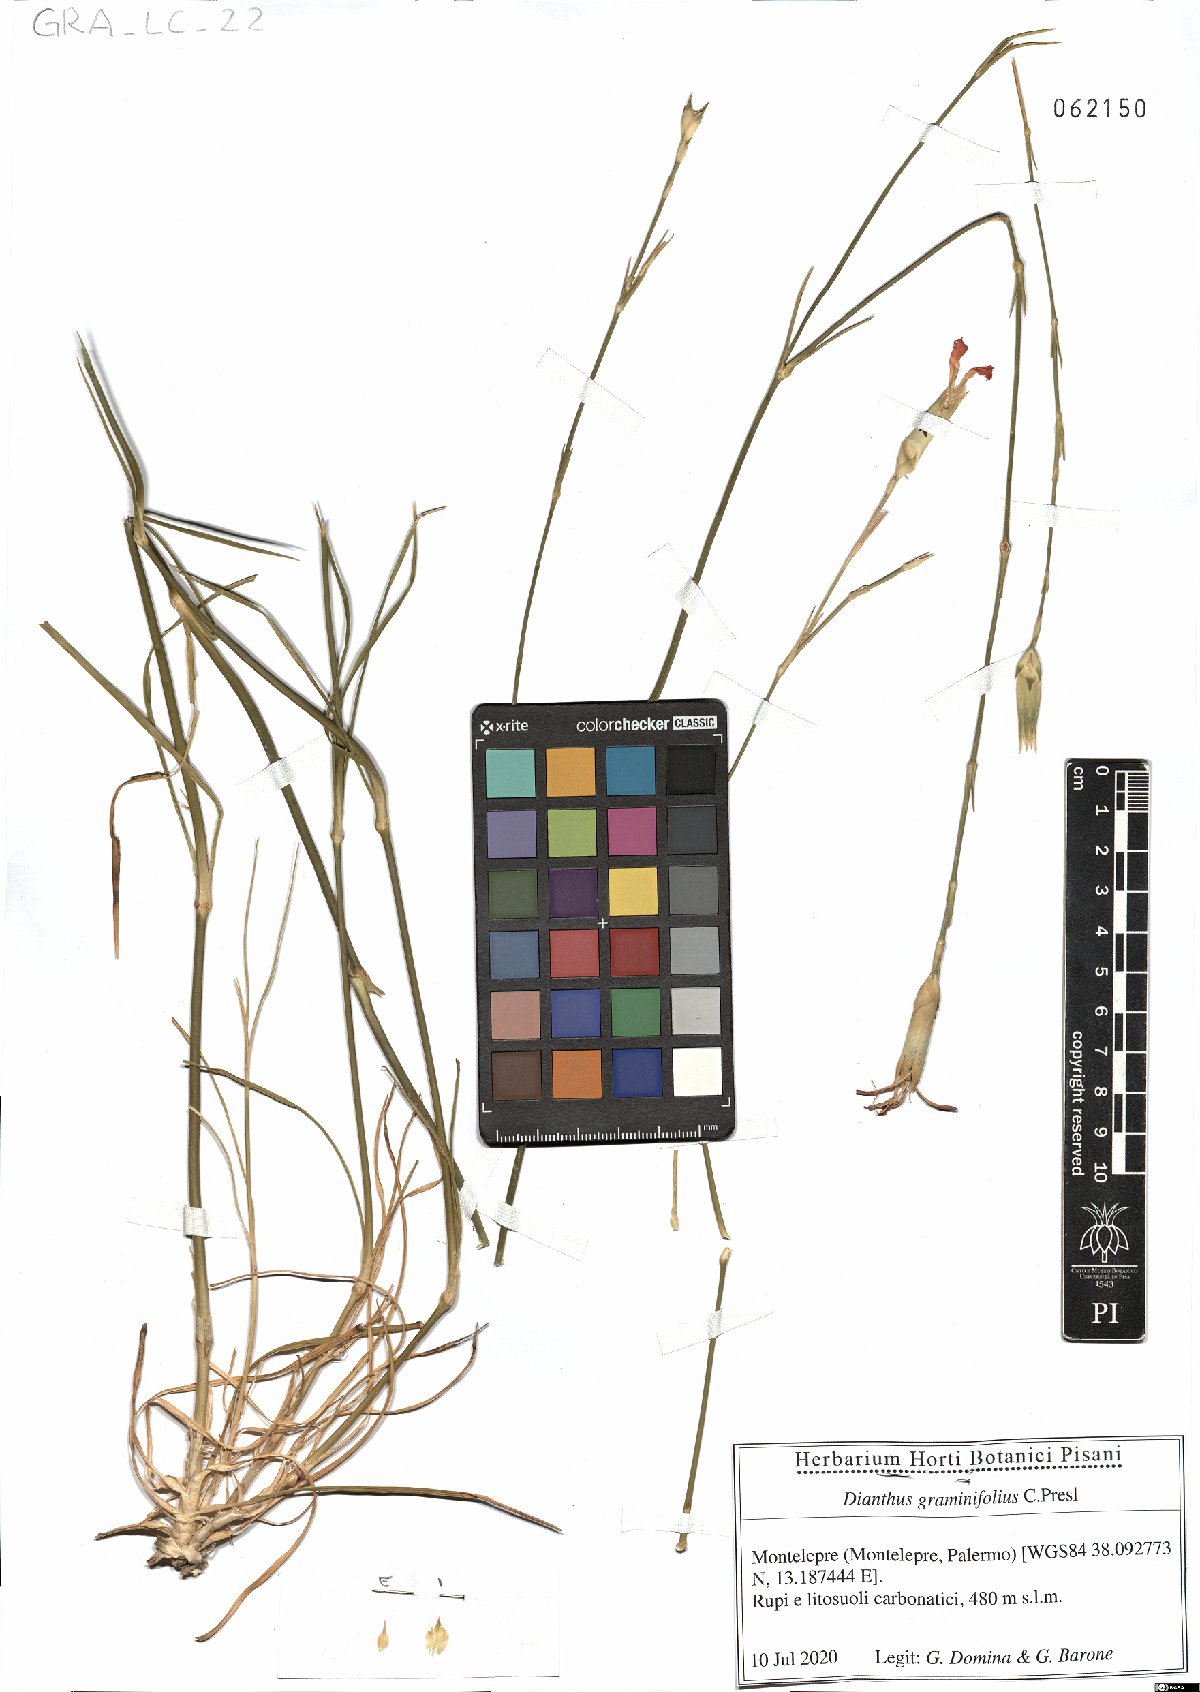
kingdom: Plantae
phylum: Tracheophyta
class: Magnoliopsida
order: Caryophyllales
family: Caryophyllaceae
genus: Dianthus
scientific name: Dianthus graminifolius
